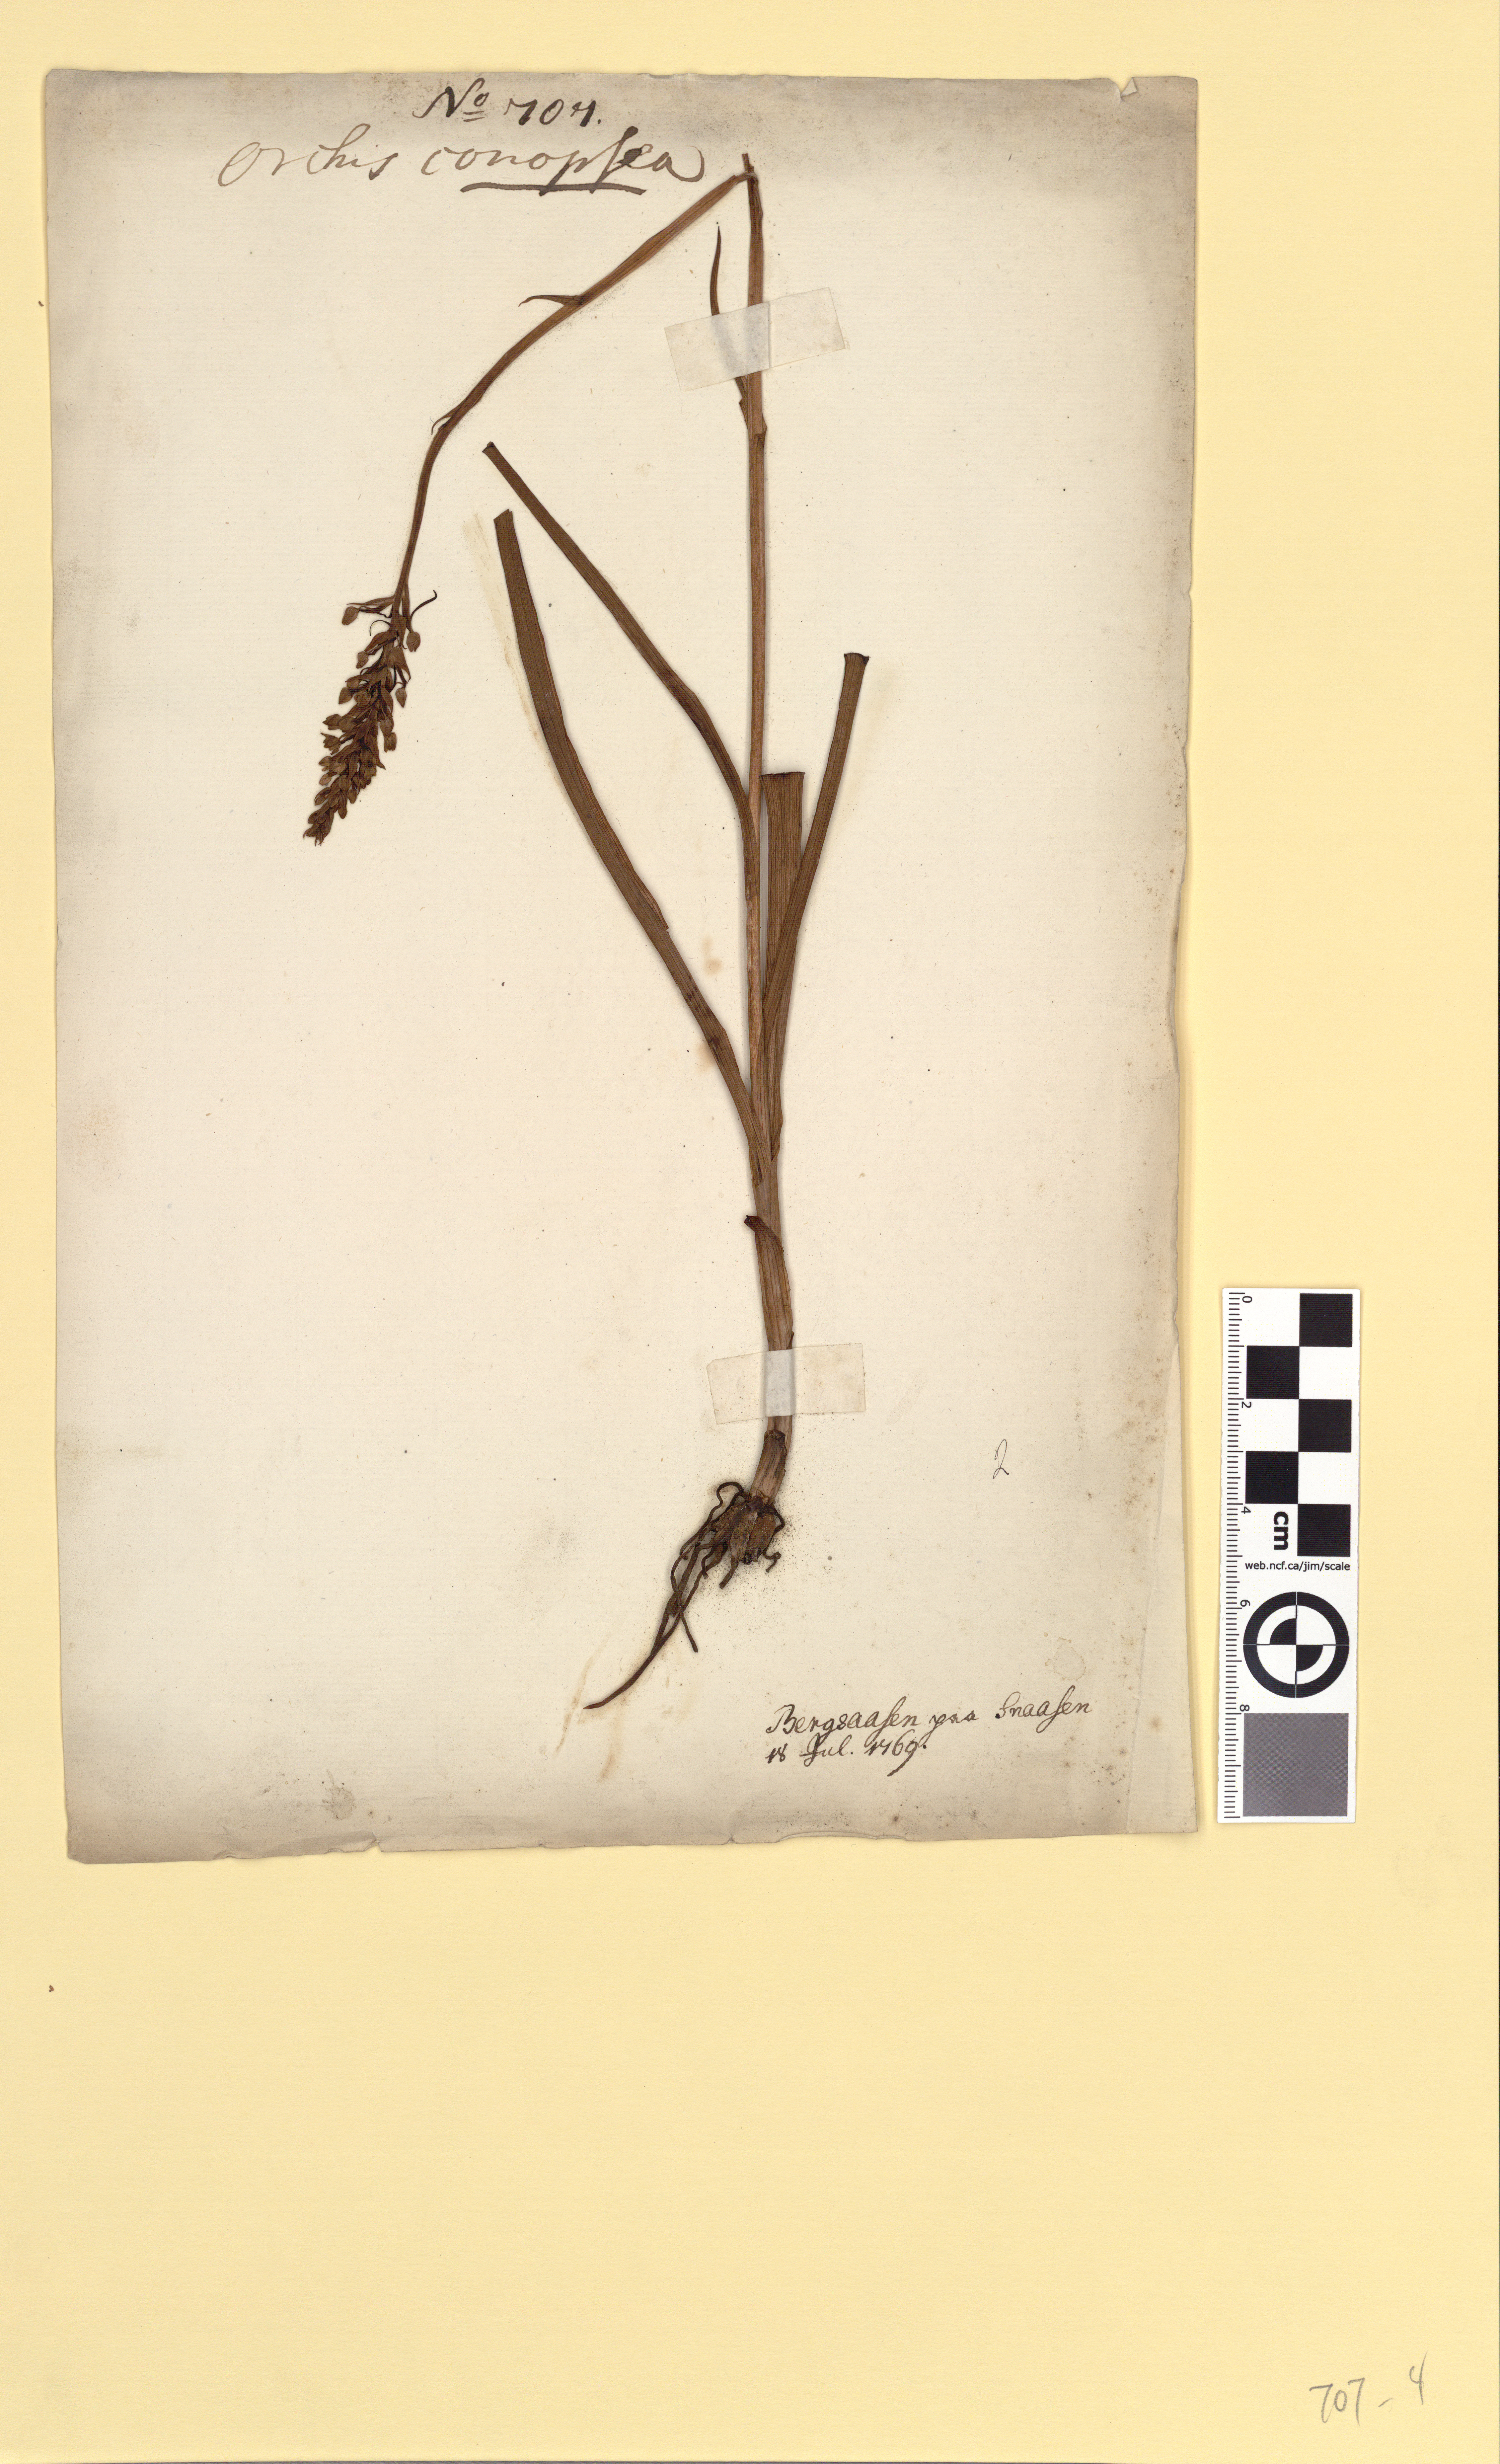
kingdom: Plantae
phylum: Tracheophyta
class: Liliopsida
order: Asparagales
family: Orchidaceae
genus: Gymnadenia
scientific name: Gymnadenia conopsea
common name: Fragrant orchid
